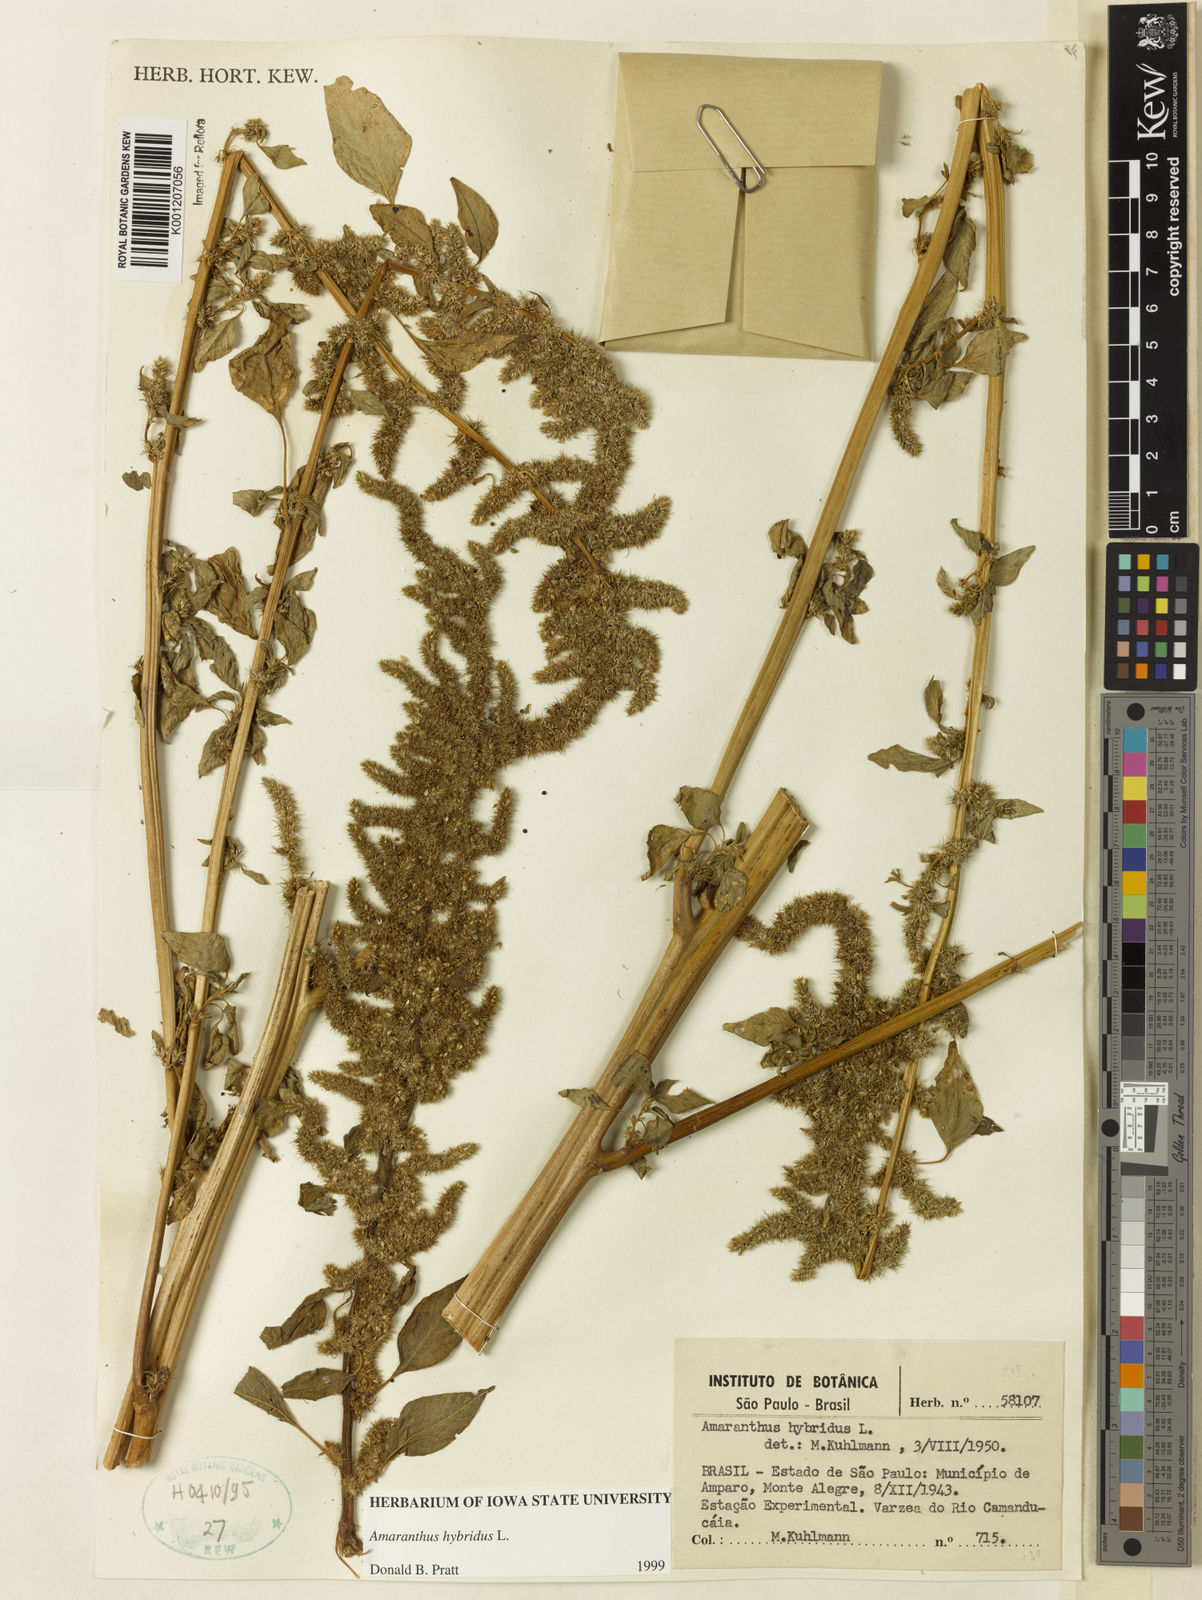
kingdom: Plantae
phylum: Tracheophyta
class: Magnoliopsida
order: Caryophyllales
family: Amaranthaceae
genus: Amaranthus
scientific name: Amaranthus hybridus
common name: Green amaranth
